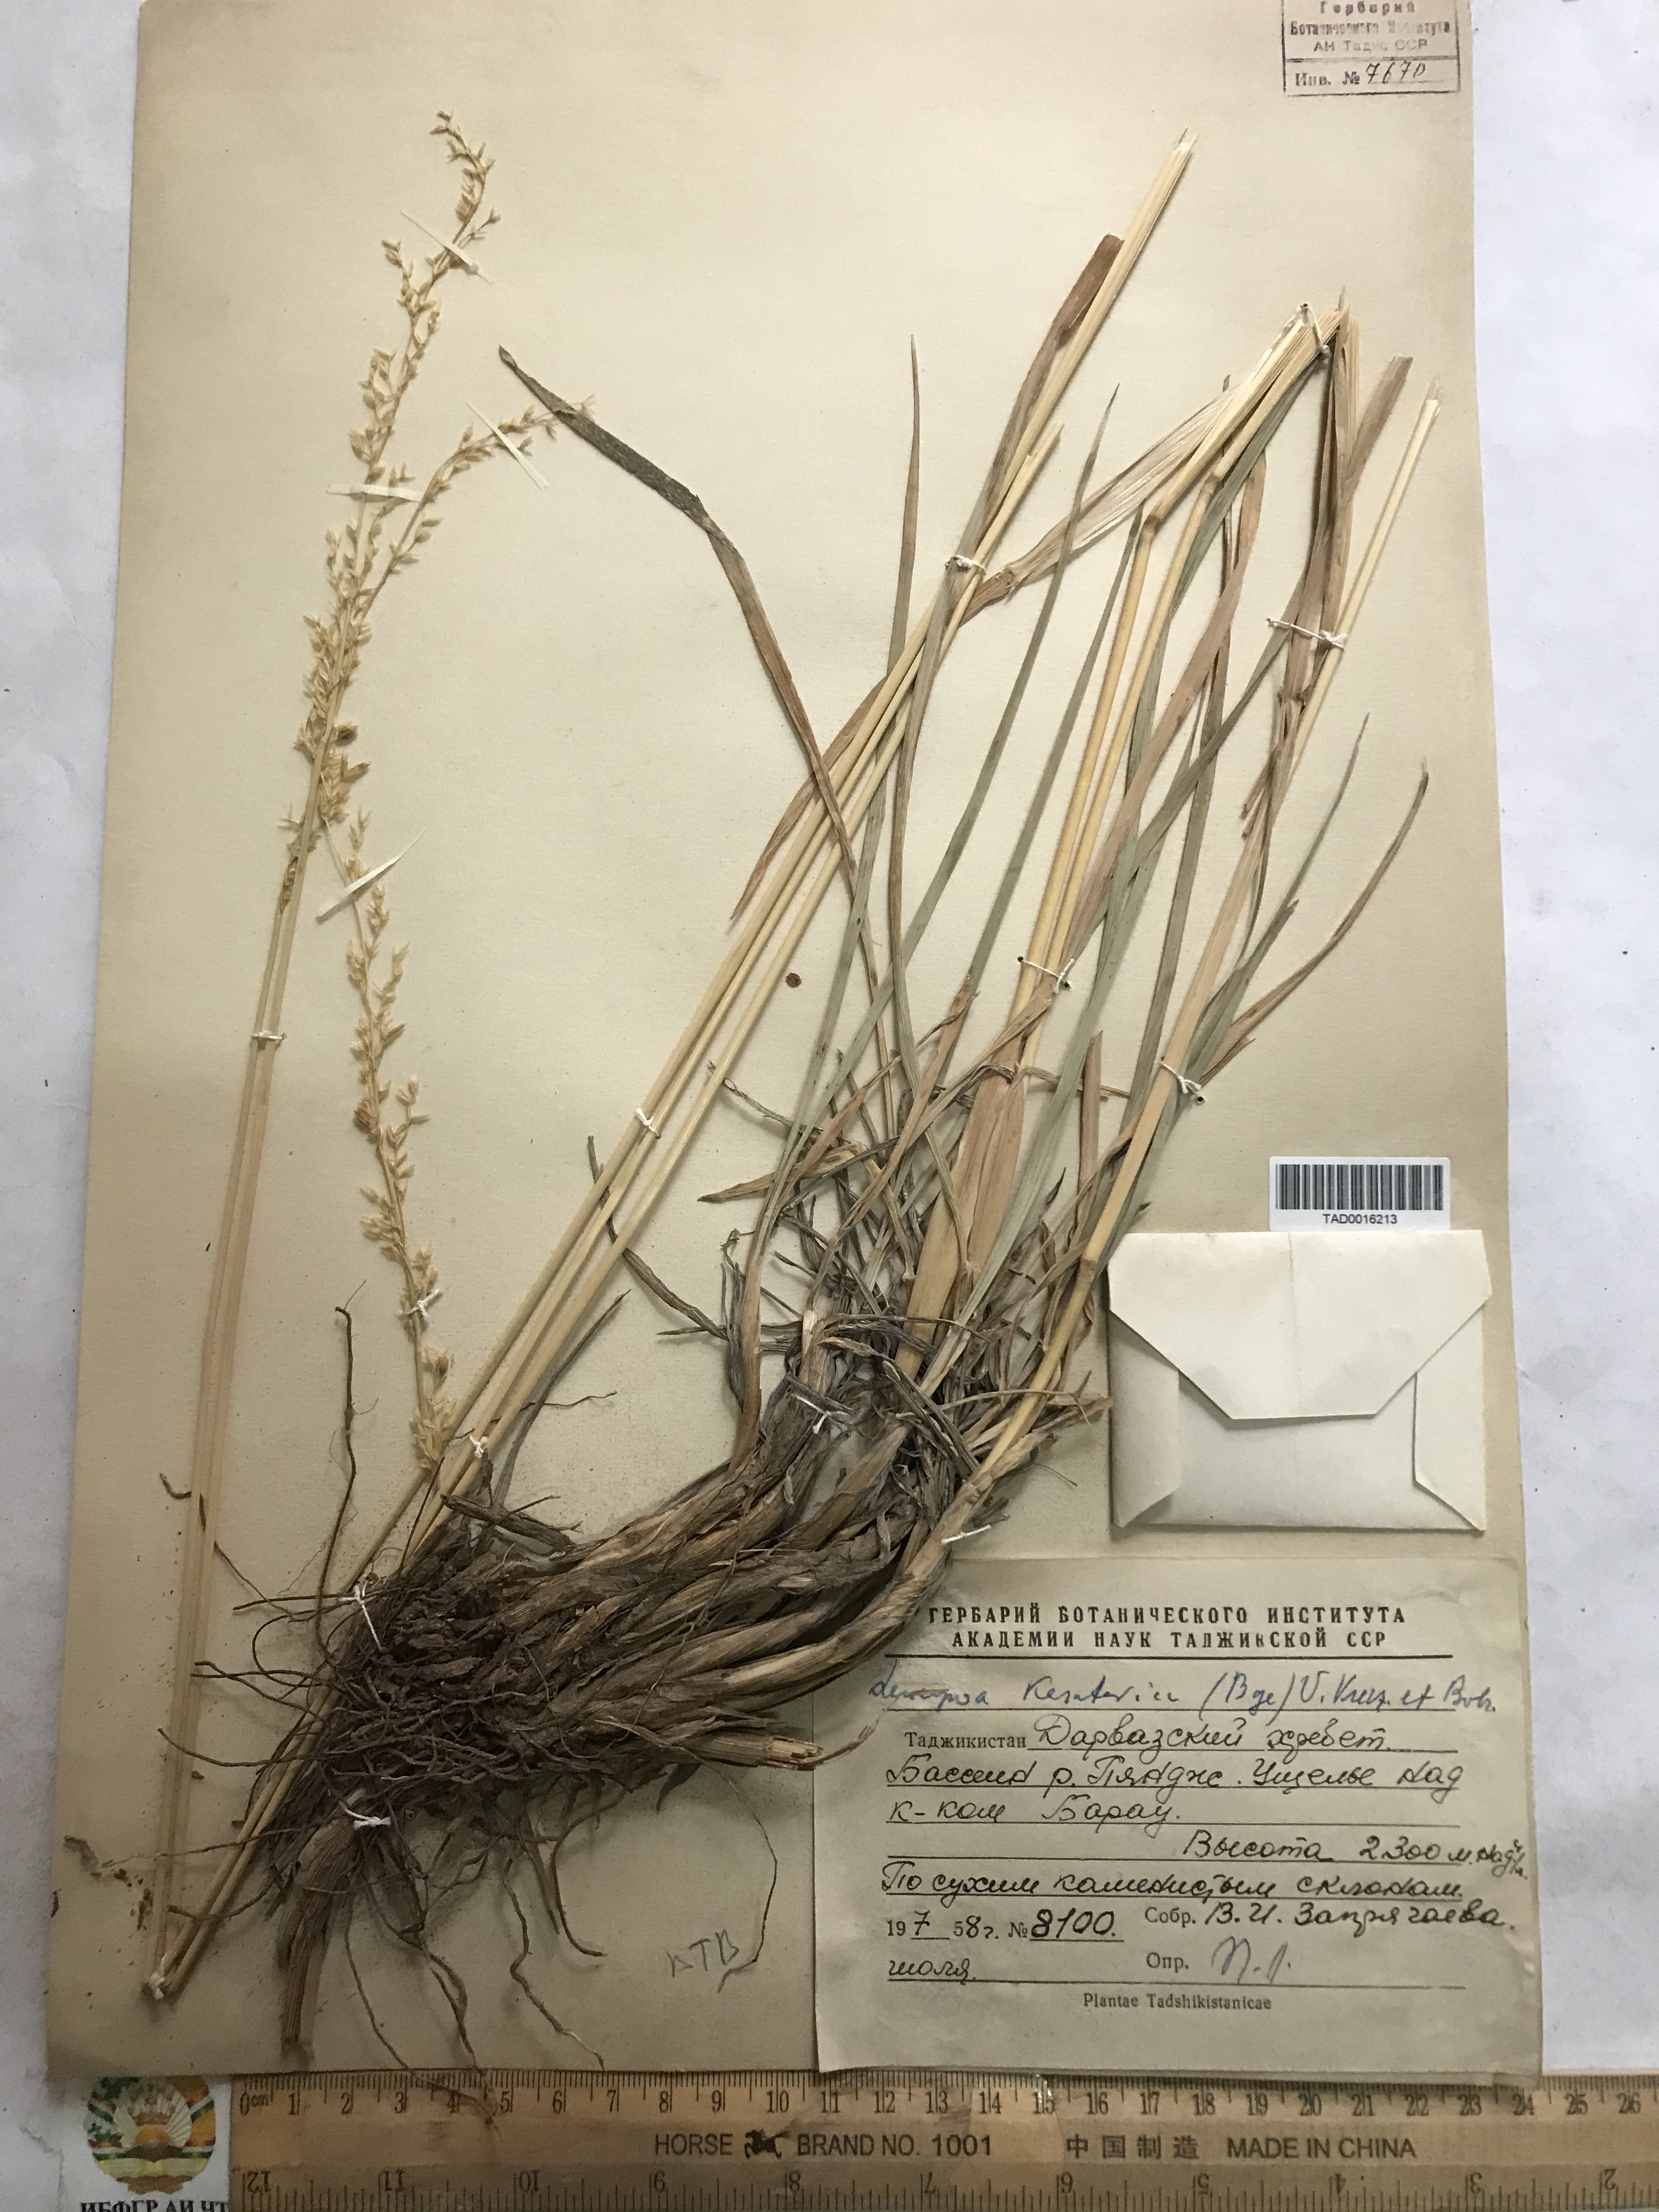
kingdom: Plantae
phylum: Tracheophyta
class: Liliopsida
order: Poales
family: Poaceae
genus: Festuca
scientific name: Festuca karatavica
